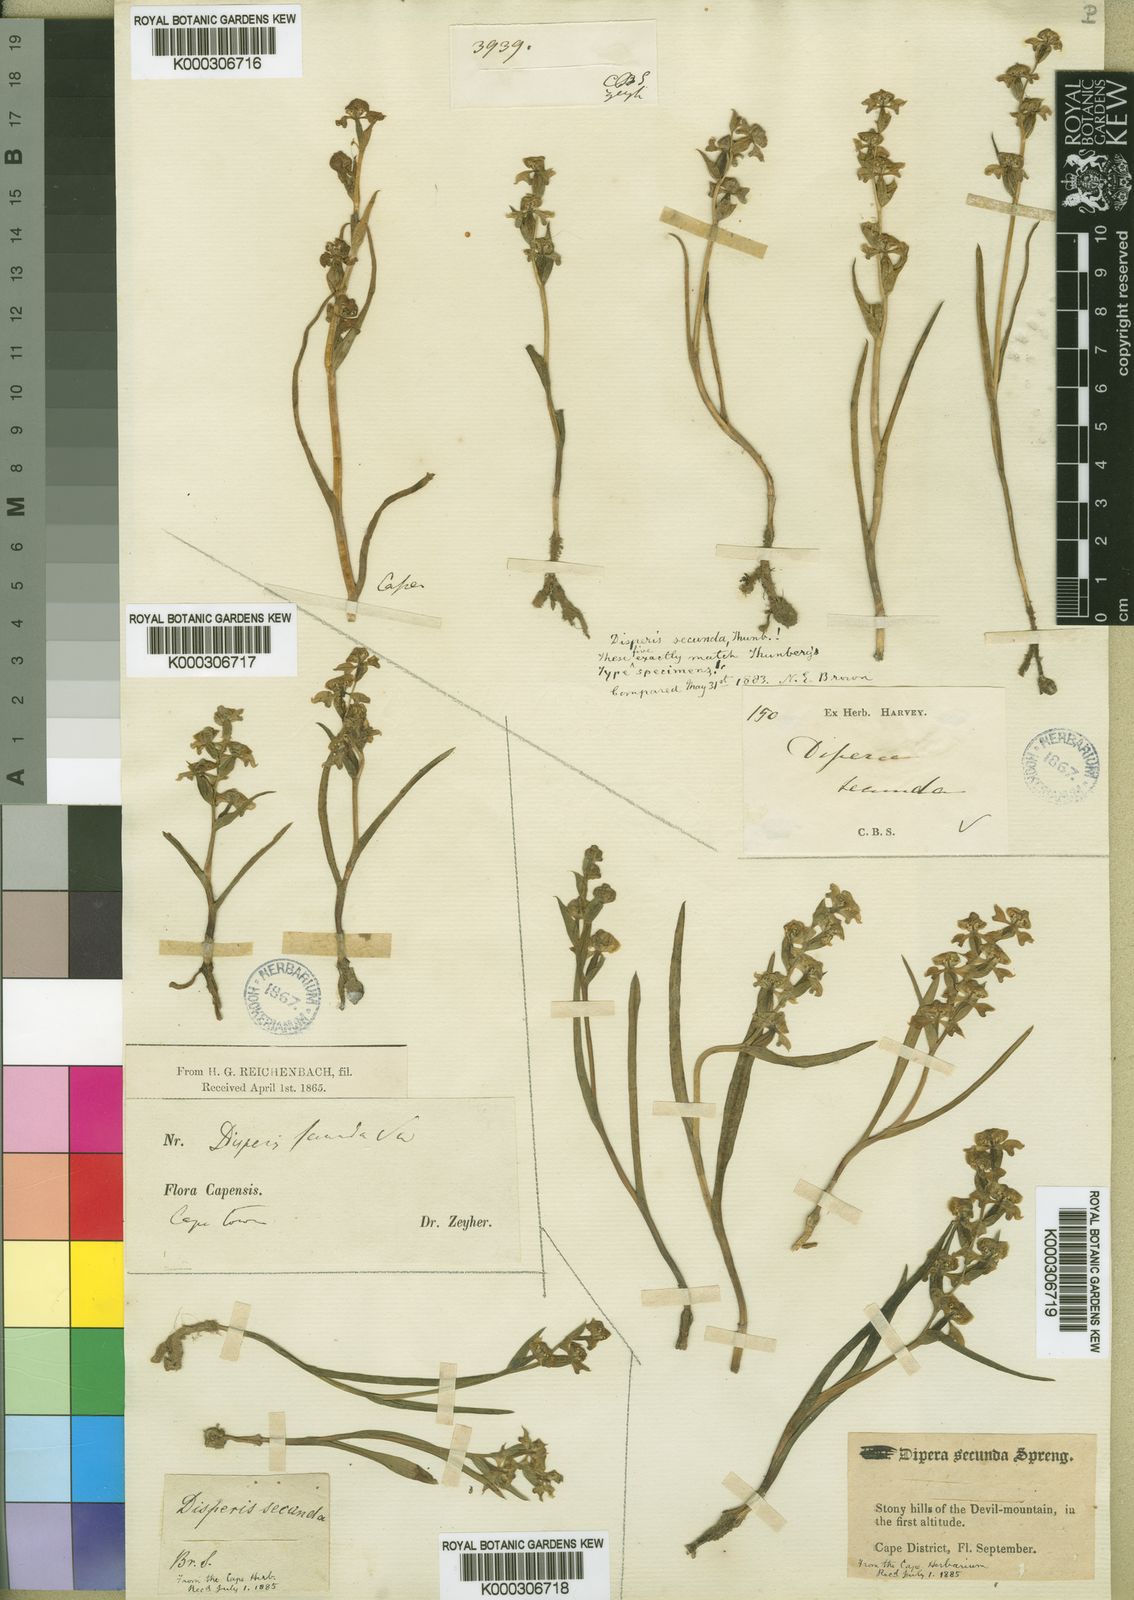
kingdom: Plantae
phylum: Tracheophyta
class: Liliopsida
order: Asparagales
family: Orchidaceae
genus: Disperis
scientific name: Disperis circumflexa
